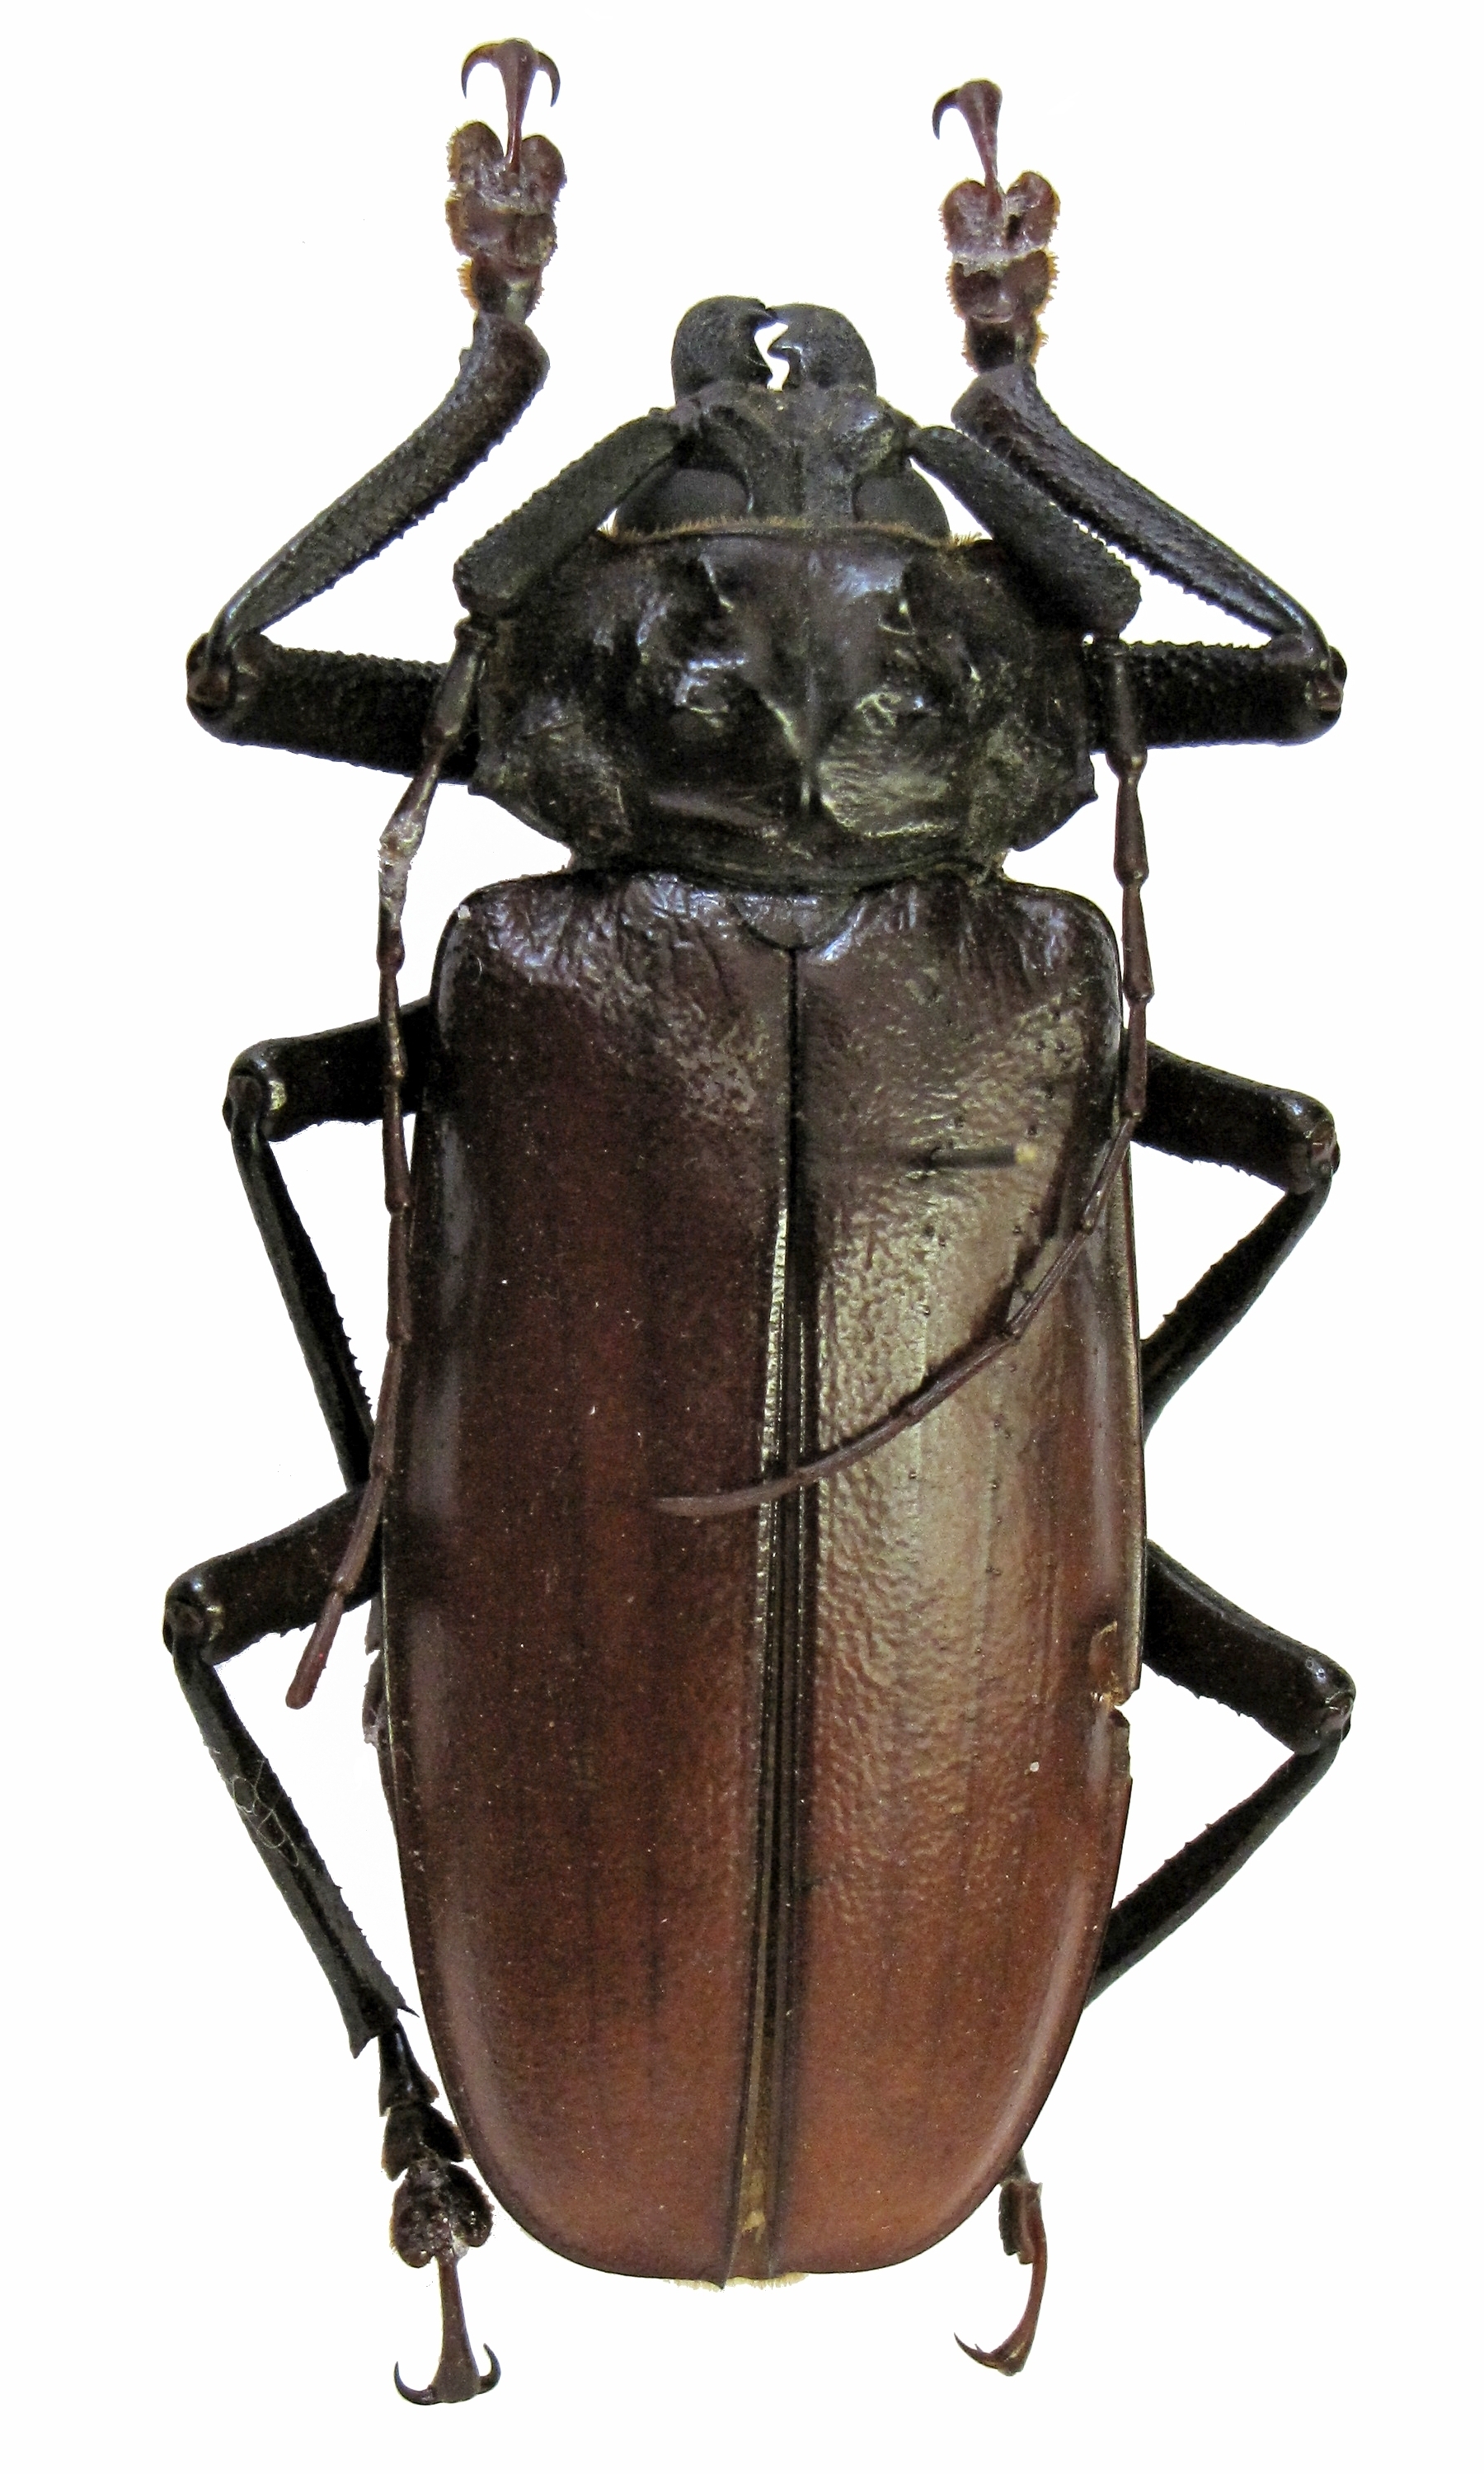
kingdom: Animalia
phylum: Arthropoda
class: Insecta
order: Coleoptera
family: Cerambycidae
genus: Hastertia
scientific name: Hastertia bougainvillei
